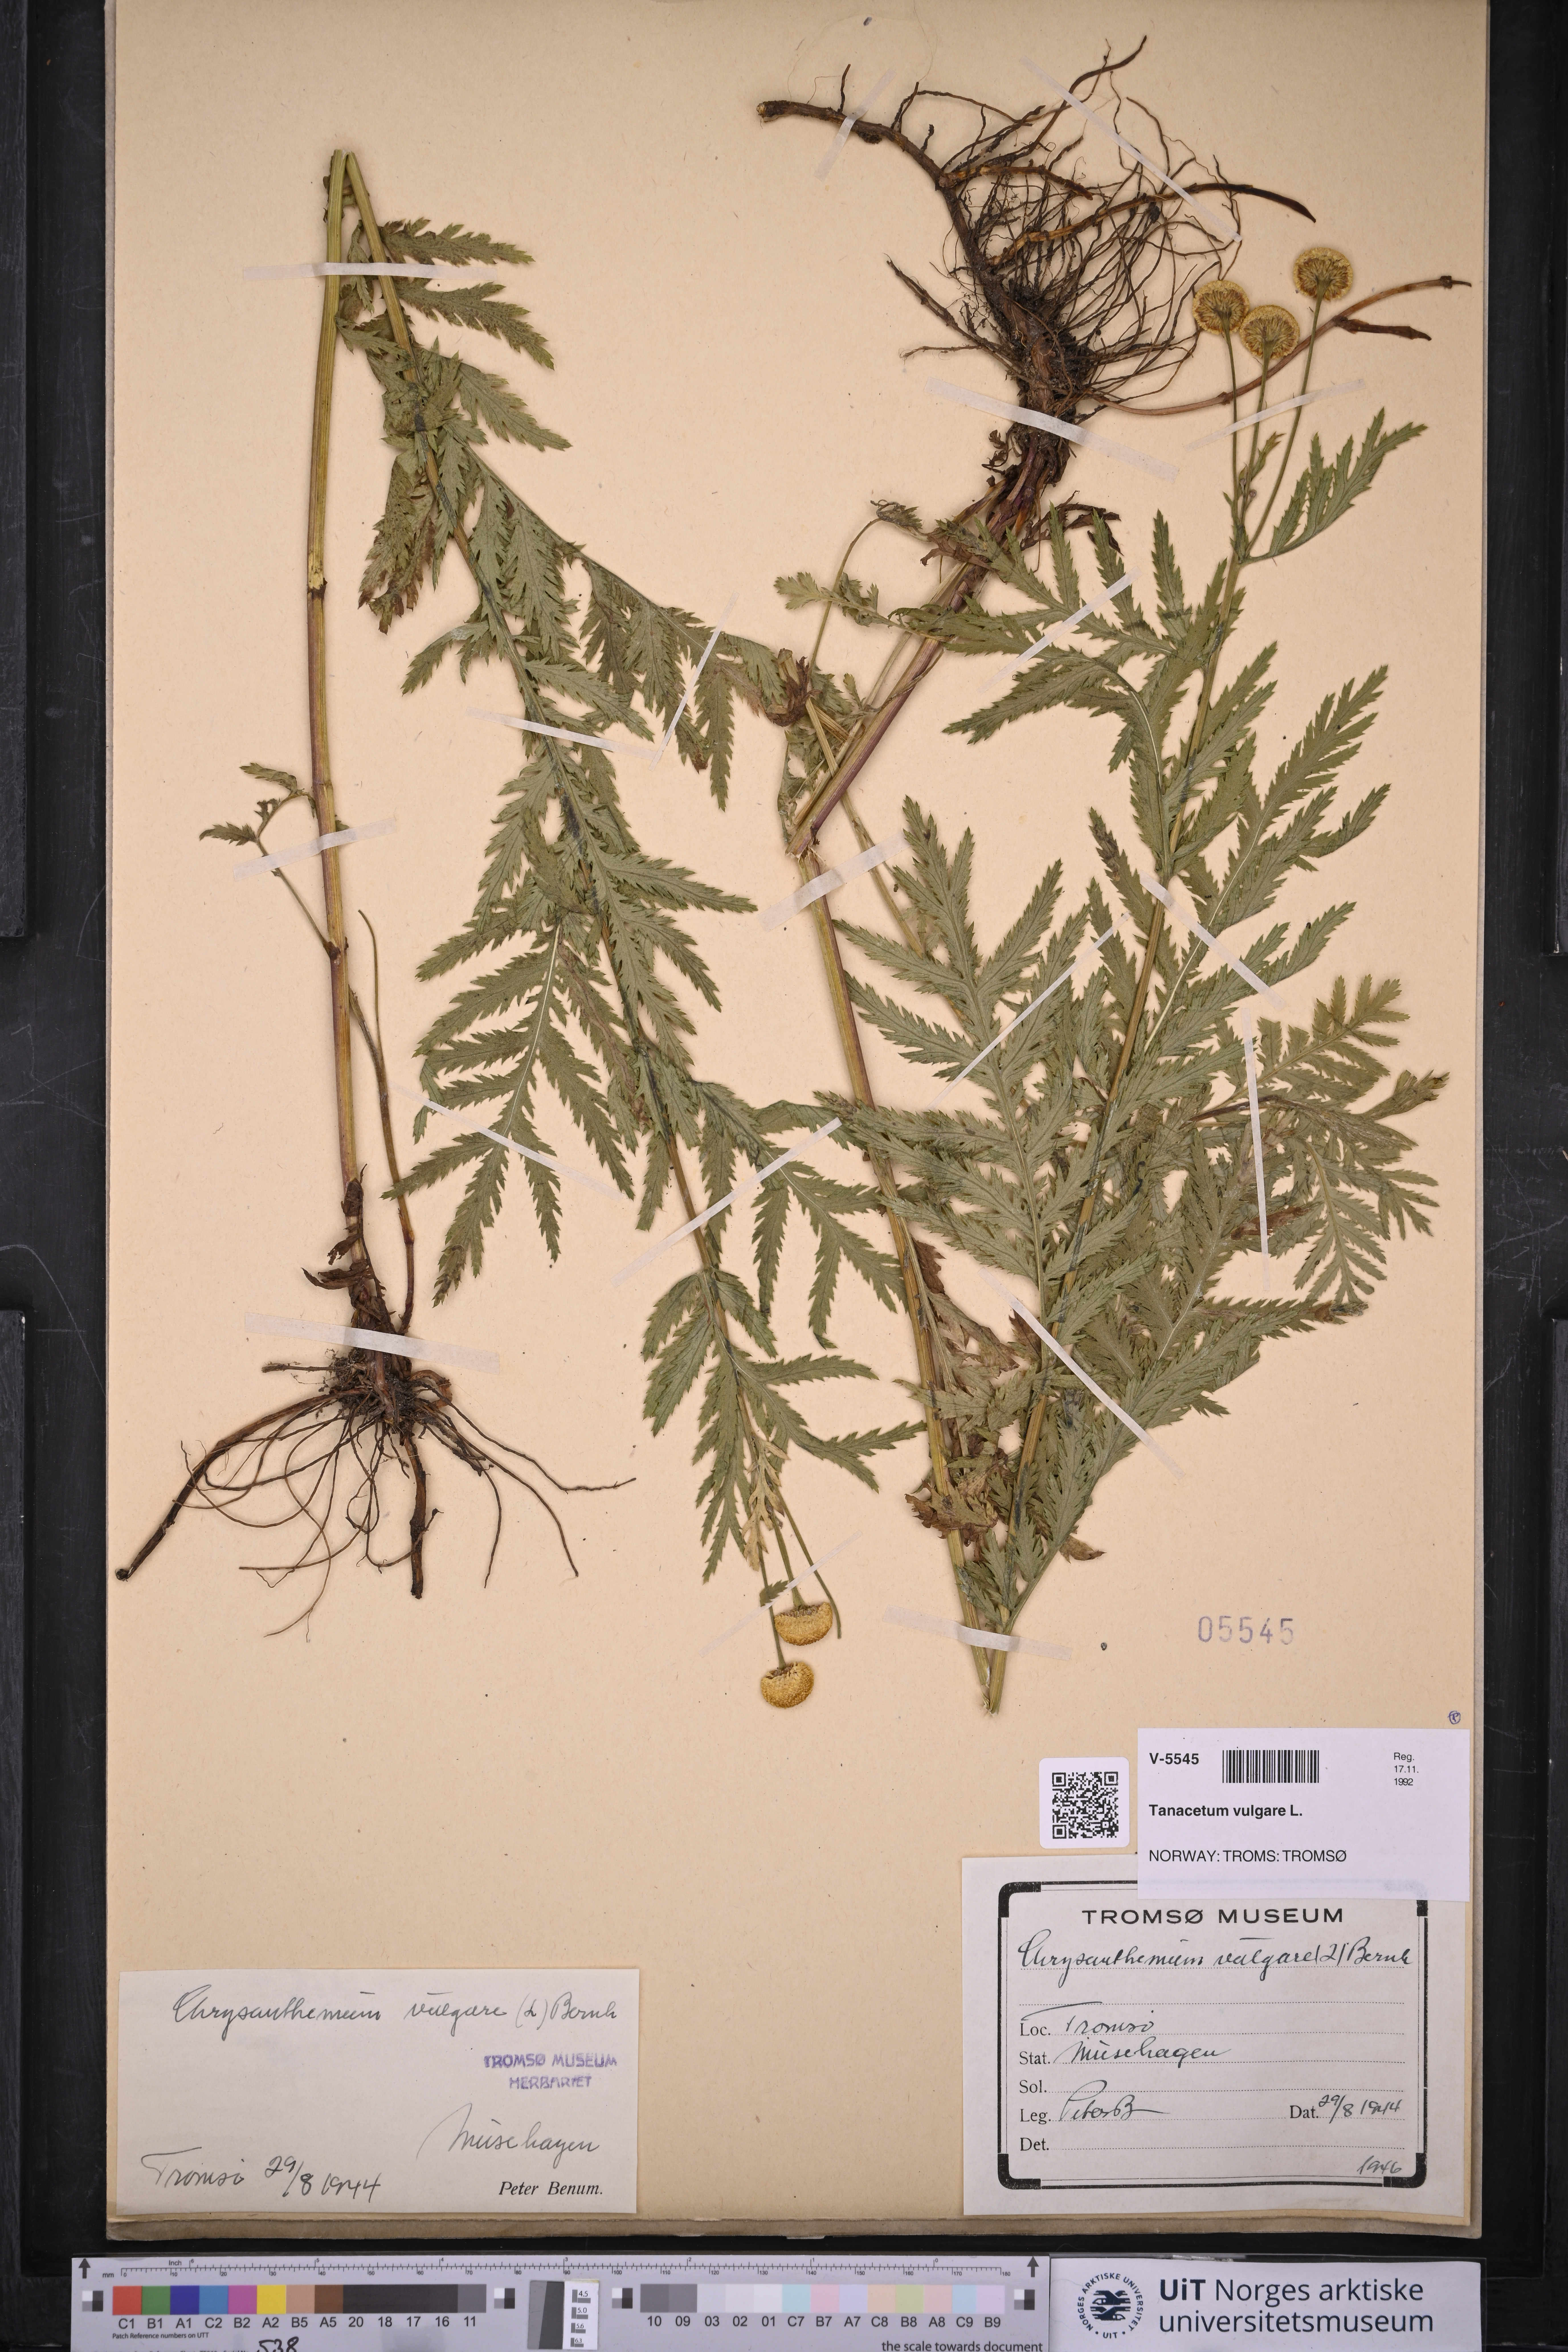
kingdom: Plantae
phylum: Tracheophyta
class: Magnoliopsida
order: Asterales
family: Asteraceae
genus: Tanacetum
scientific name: Tanacetum vulgare
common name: Common tansy
